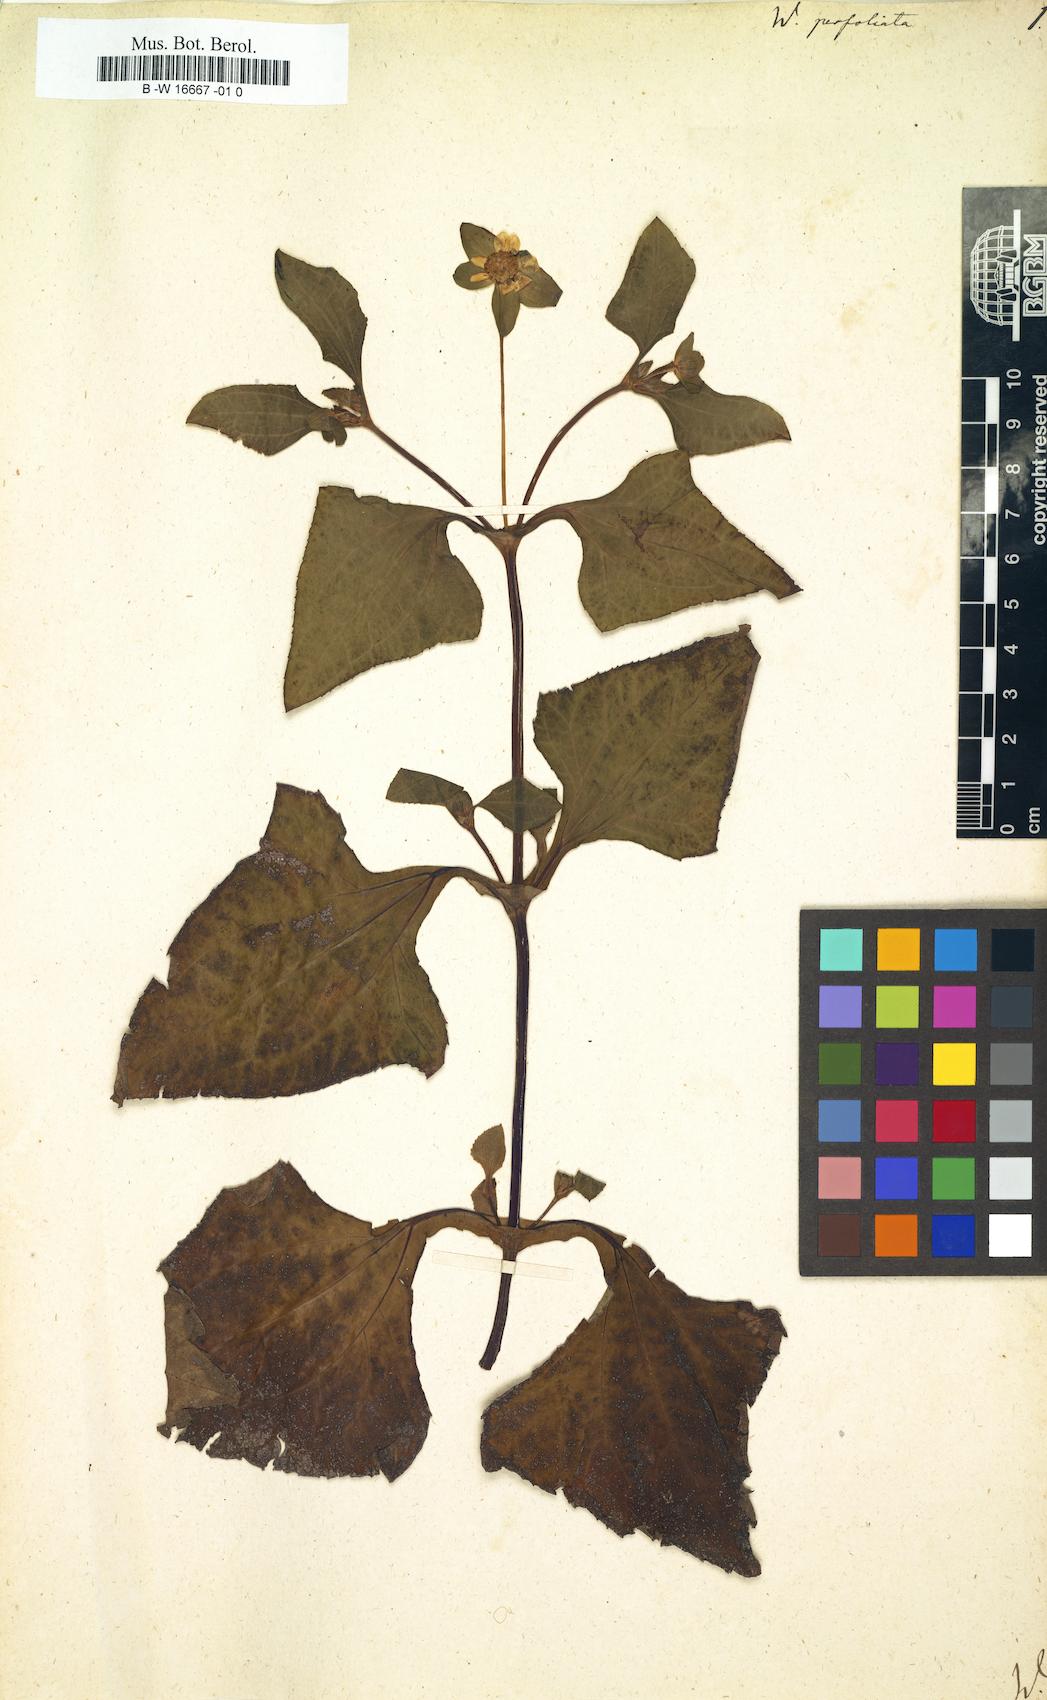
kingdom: Plantae
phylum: Tracheophyta
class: Magnoliopsida
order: Asterales
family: Asteraceae
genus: Melampodium
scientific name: Melampodium perfoliatum
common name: Perfoliate blackfoot
